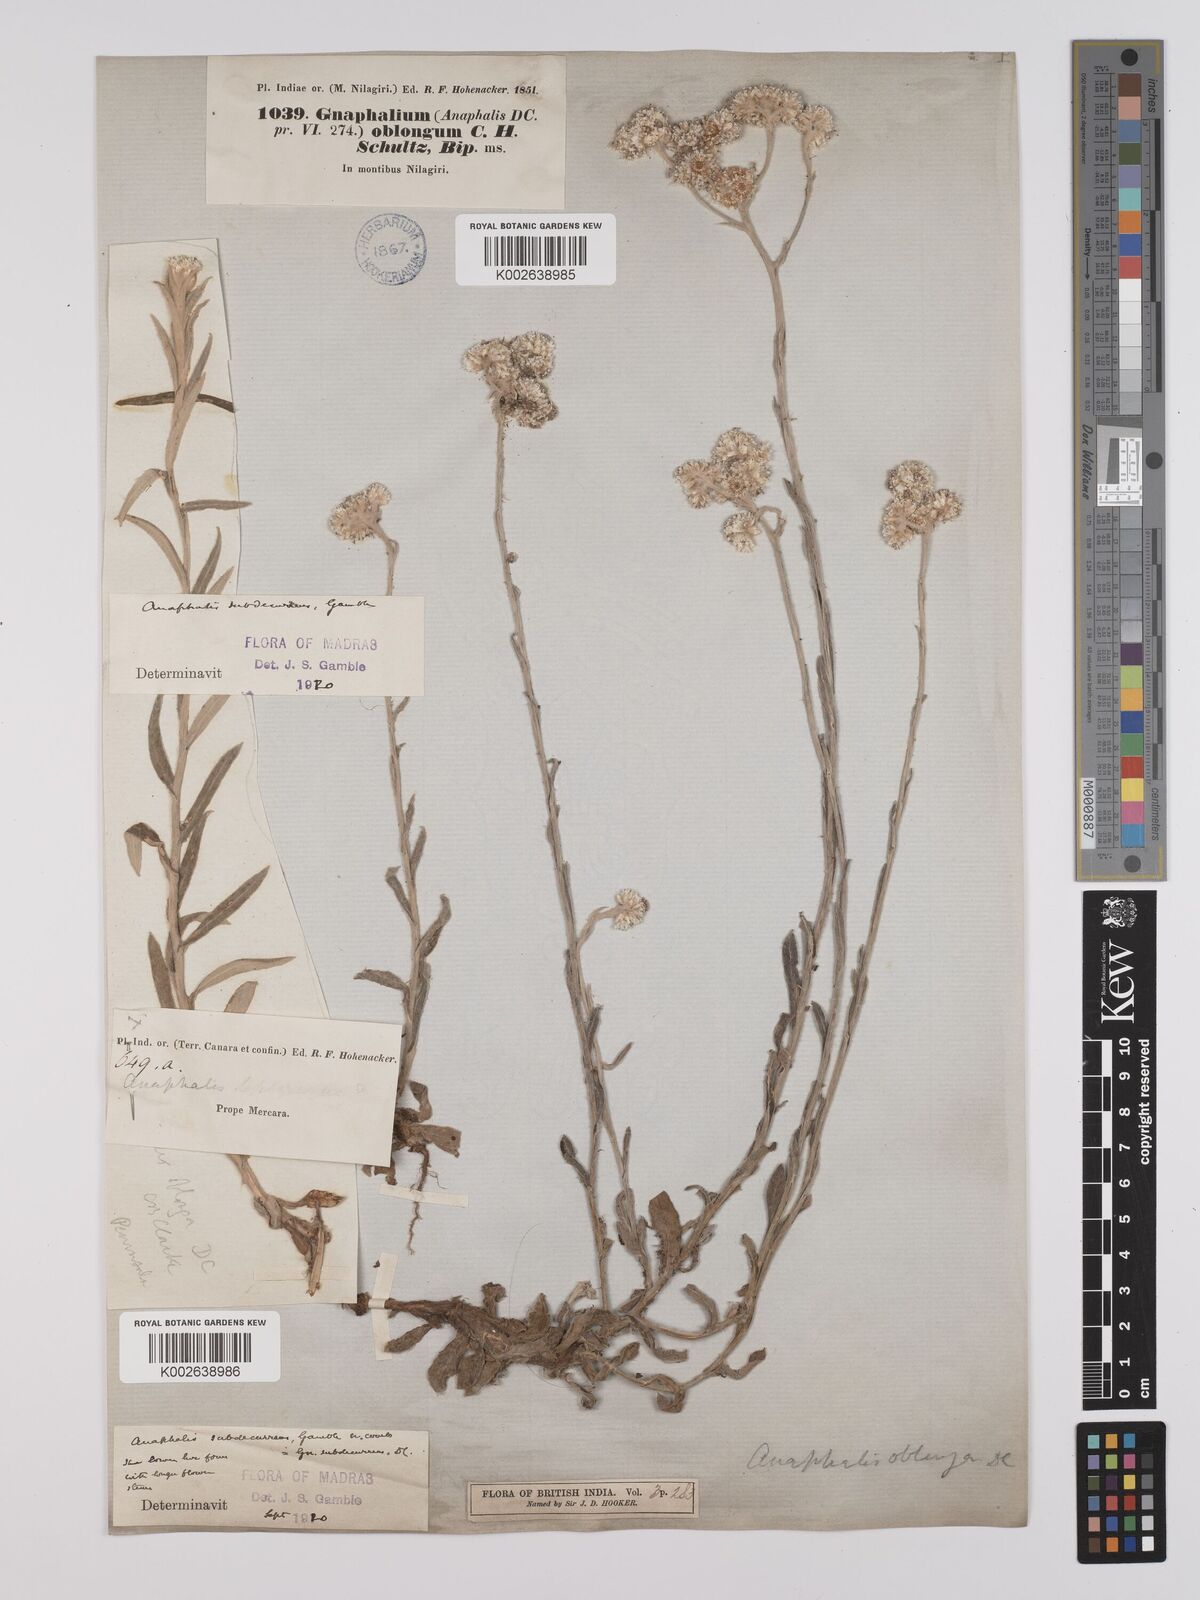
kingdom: Plantae
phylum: Tracheophyta
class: Magnoliopsida
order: Asterales
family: Asteraceae
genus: Anaphalis
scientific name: Anaphalis subdecurrens
